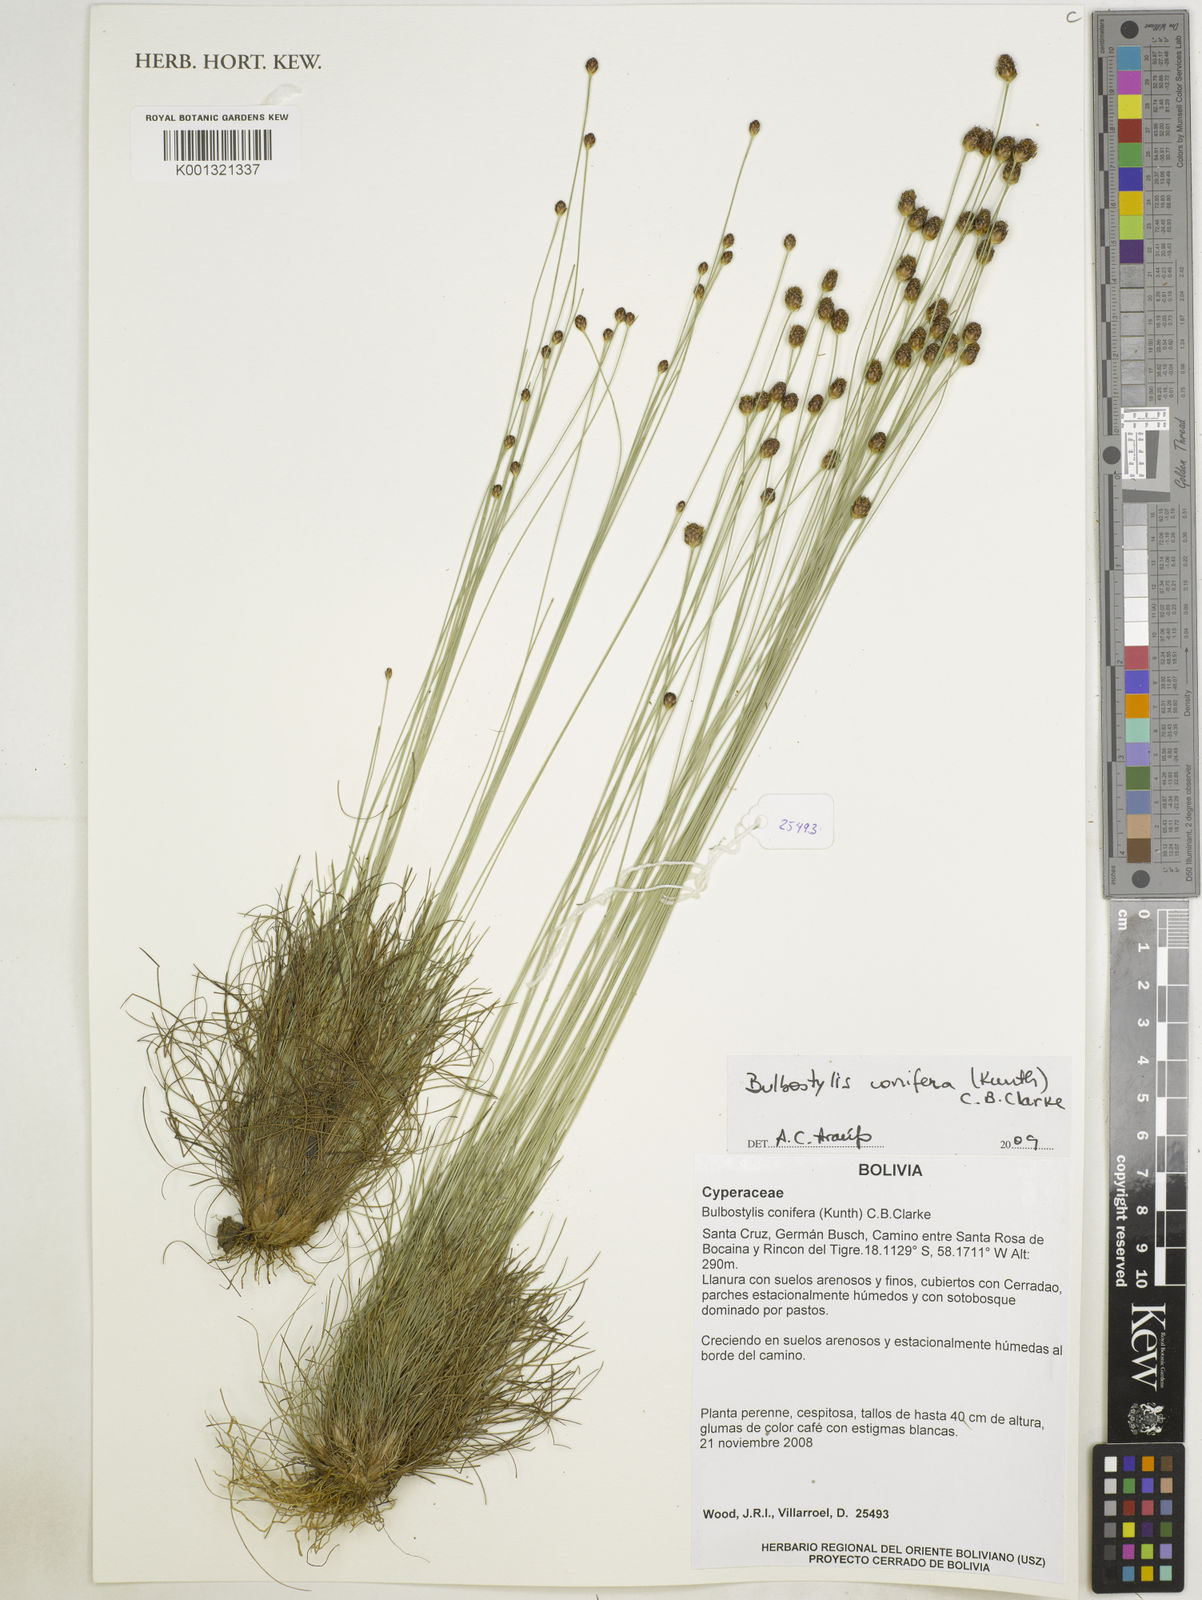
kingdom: Plantae
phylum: Tracheophyta
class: Liliopsida
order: Poales
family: Cyperaceae
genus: Bulbostylis
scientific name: Bulbostylis conifera
